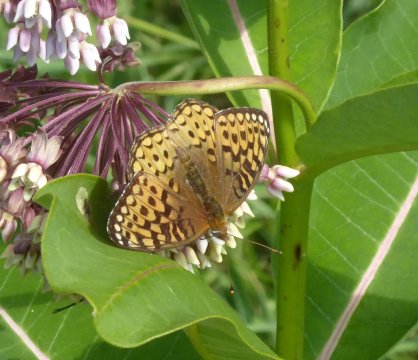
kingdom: Animalia
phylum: Arthropoda
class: Insecta
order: Lepidoptera
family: Nymphalidae
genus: Speyeria
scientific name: Speyeria atlantis
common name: Atlantis Fritillary
